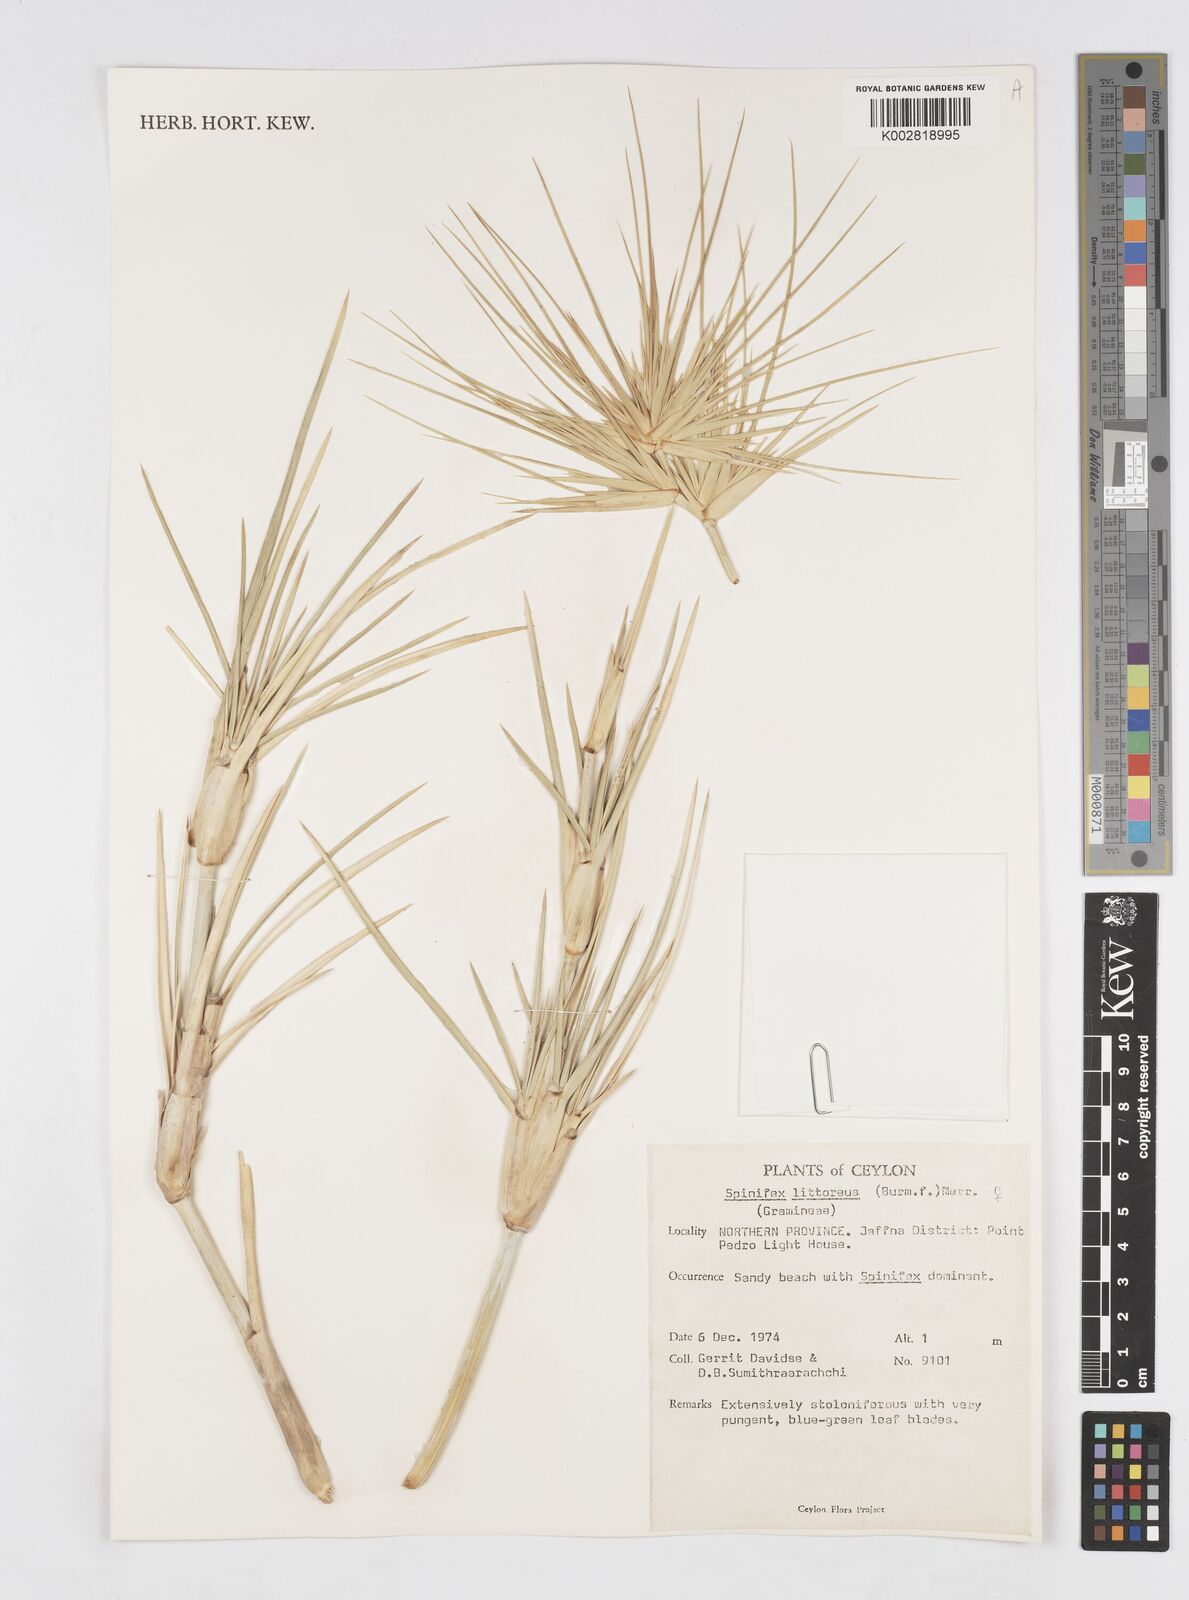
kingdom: Plantae
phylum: Tracheophyta
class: Liliopsida
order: Poales
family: Poaceae
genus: Spinifex
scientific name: Spinifex littoreus
